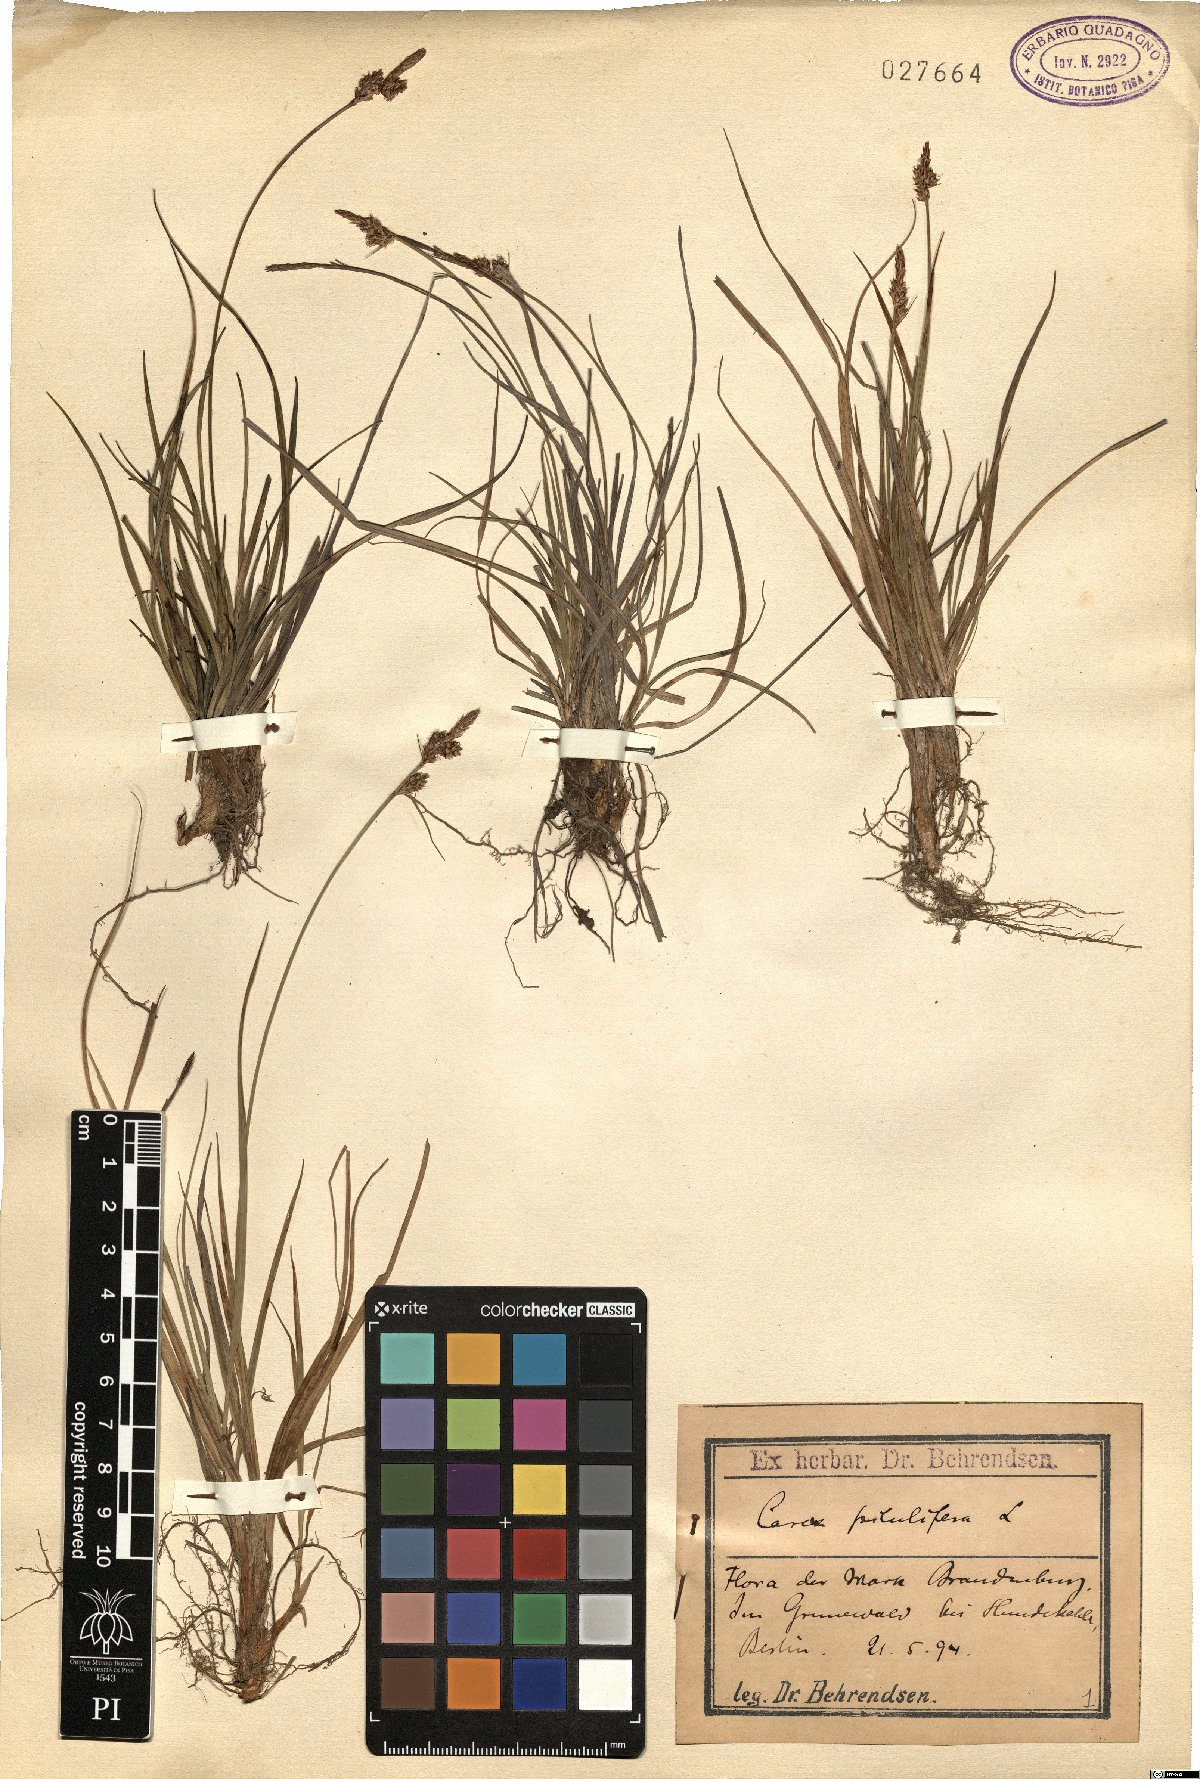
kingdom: Plantae
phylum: Tracheophyta
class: Liliopsida
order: Poales
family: Cyperaceae
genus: Carex
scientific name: Carex pilulifera
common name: Pill sedge
